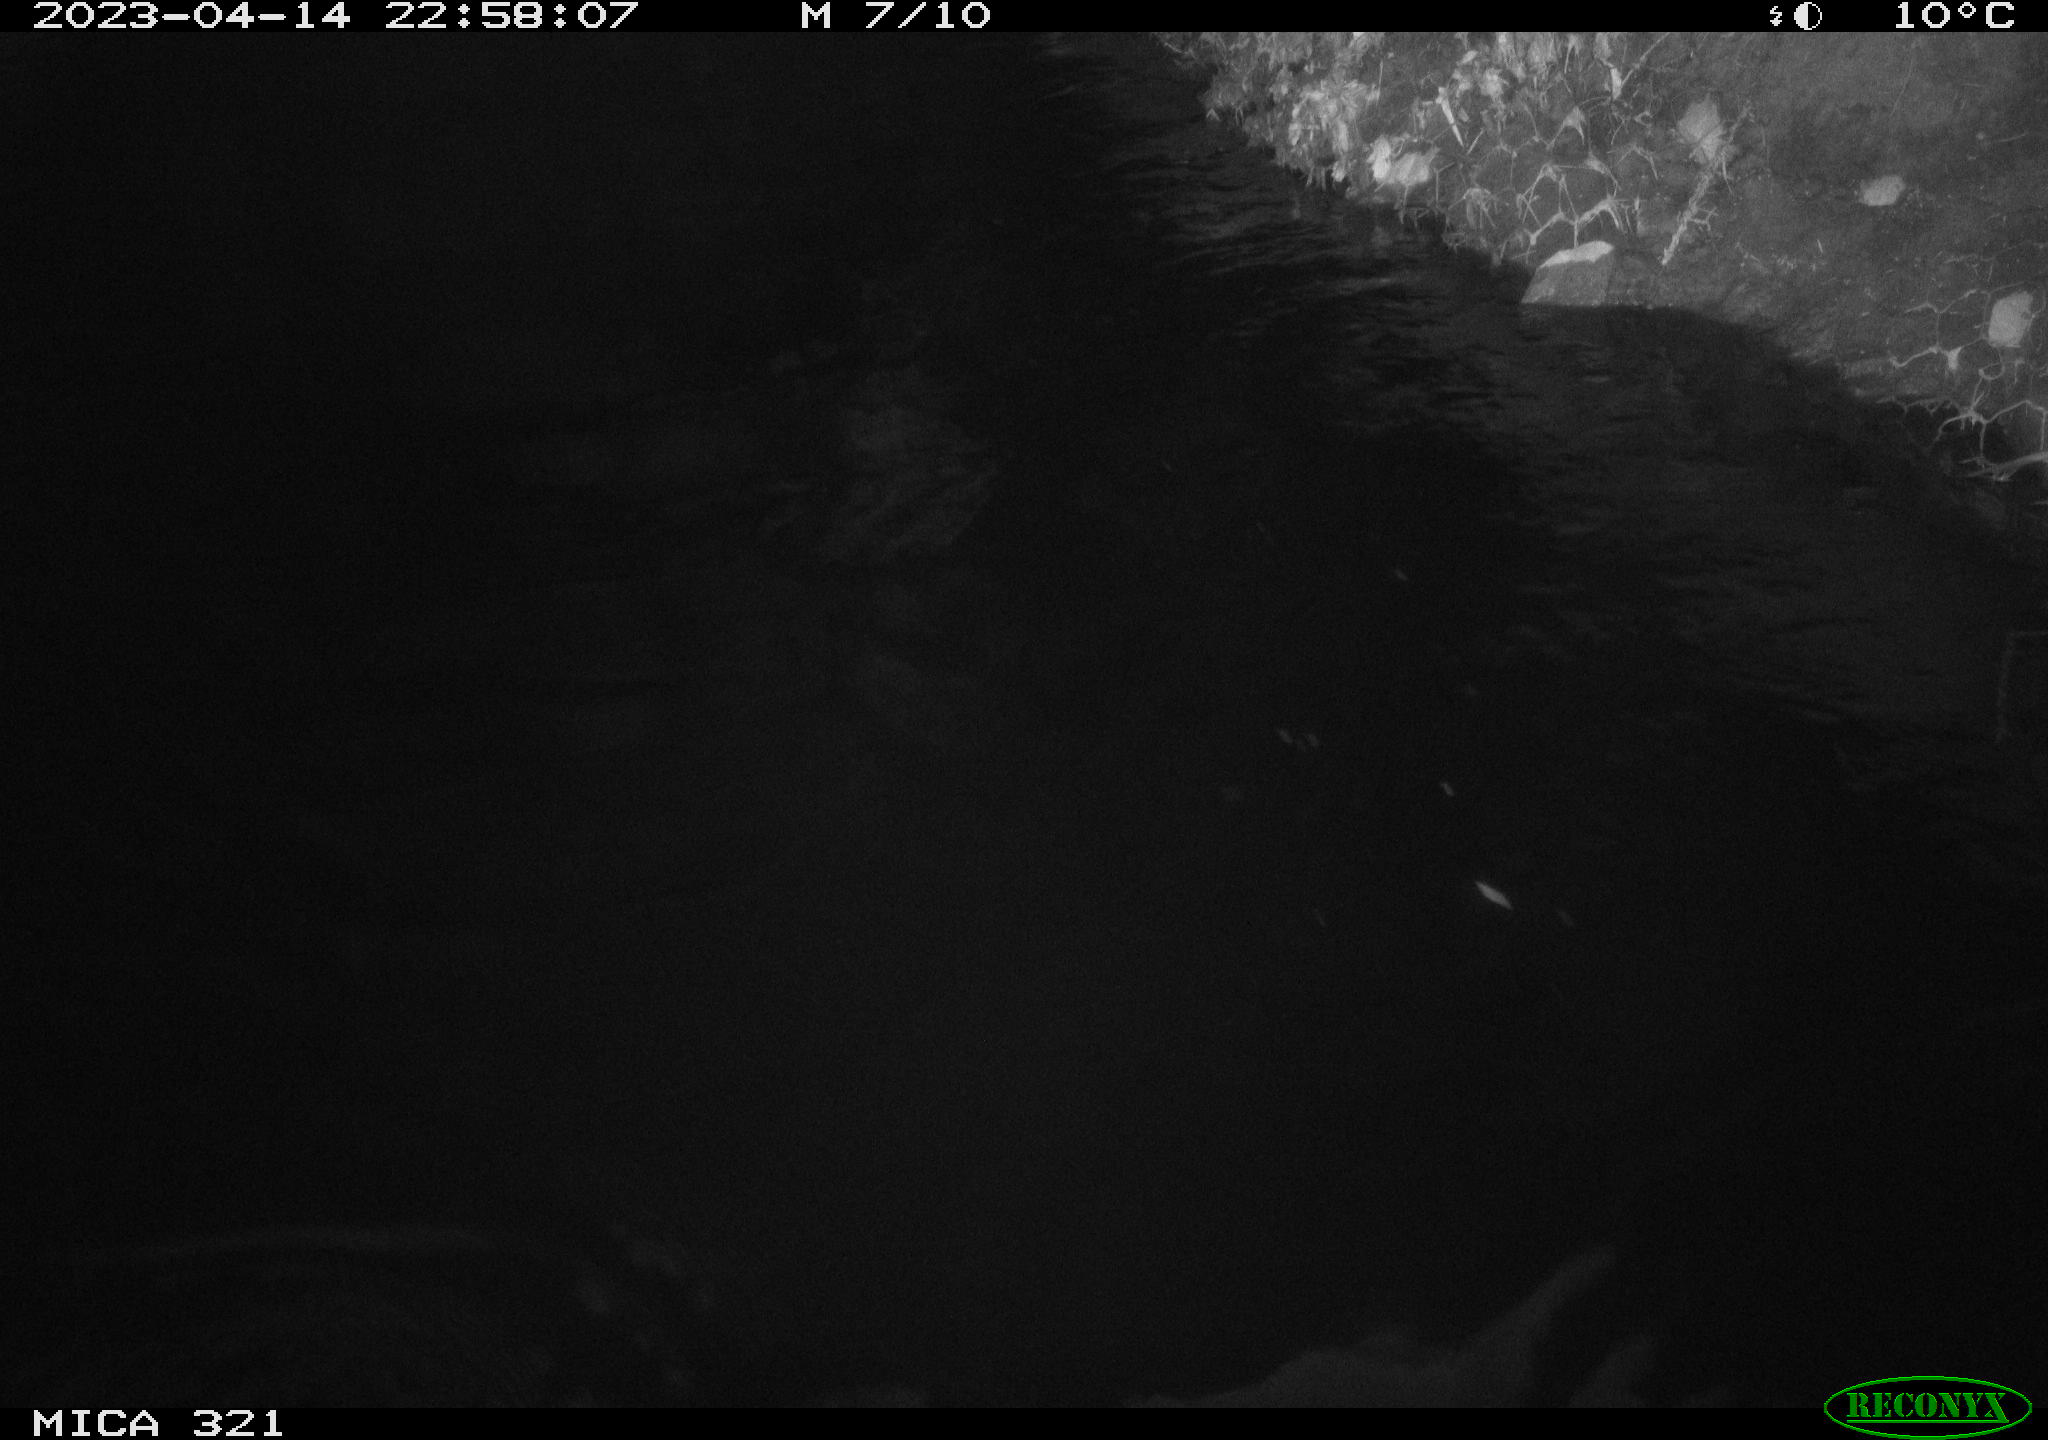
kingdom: Animalia
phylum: Chordata
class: Mammalia
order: Rodentia
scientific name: Rodentia
